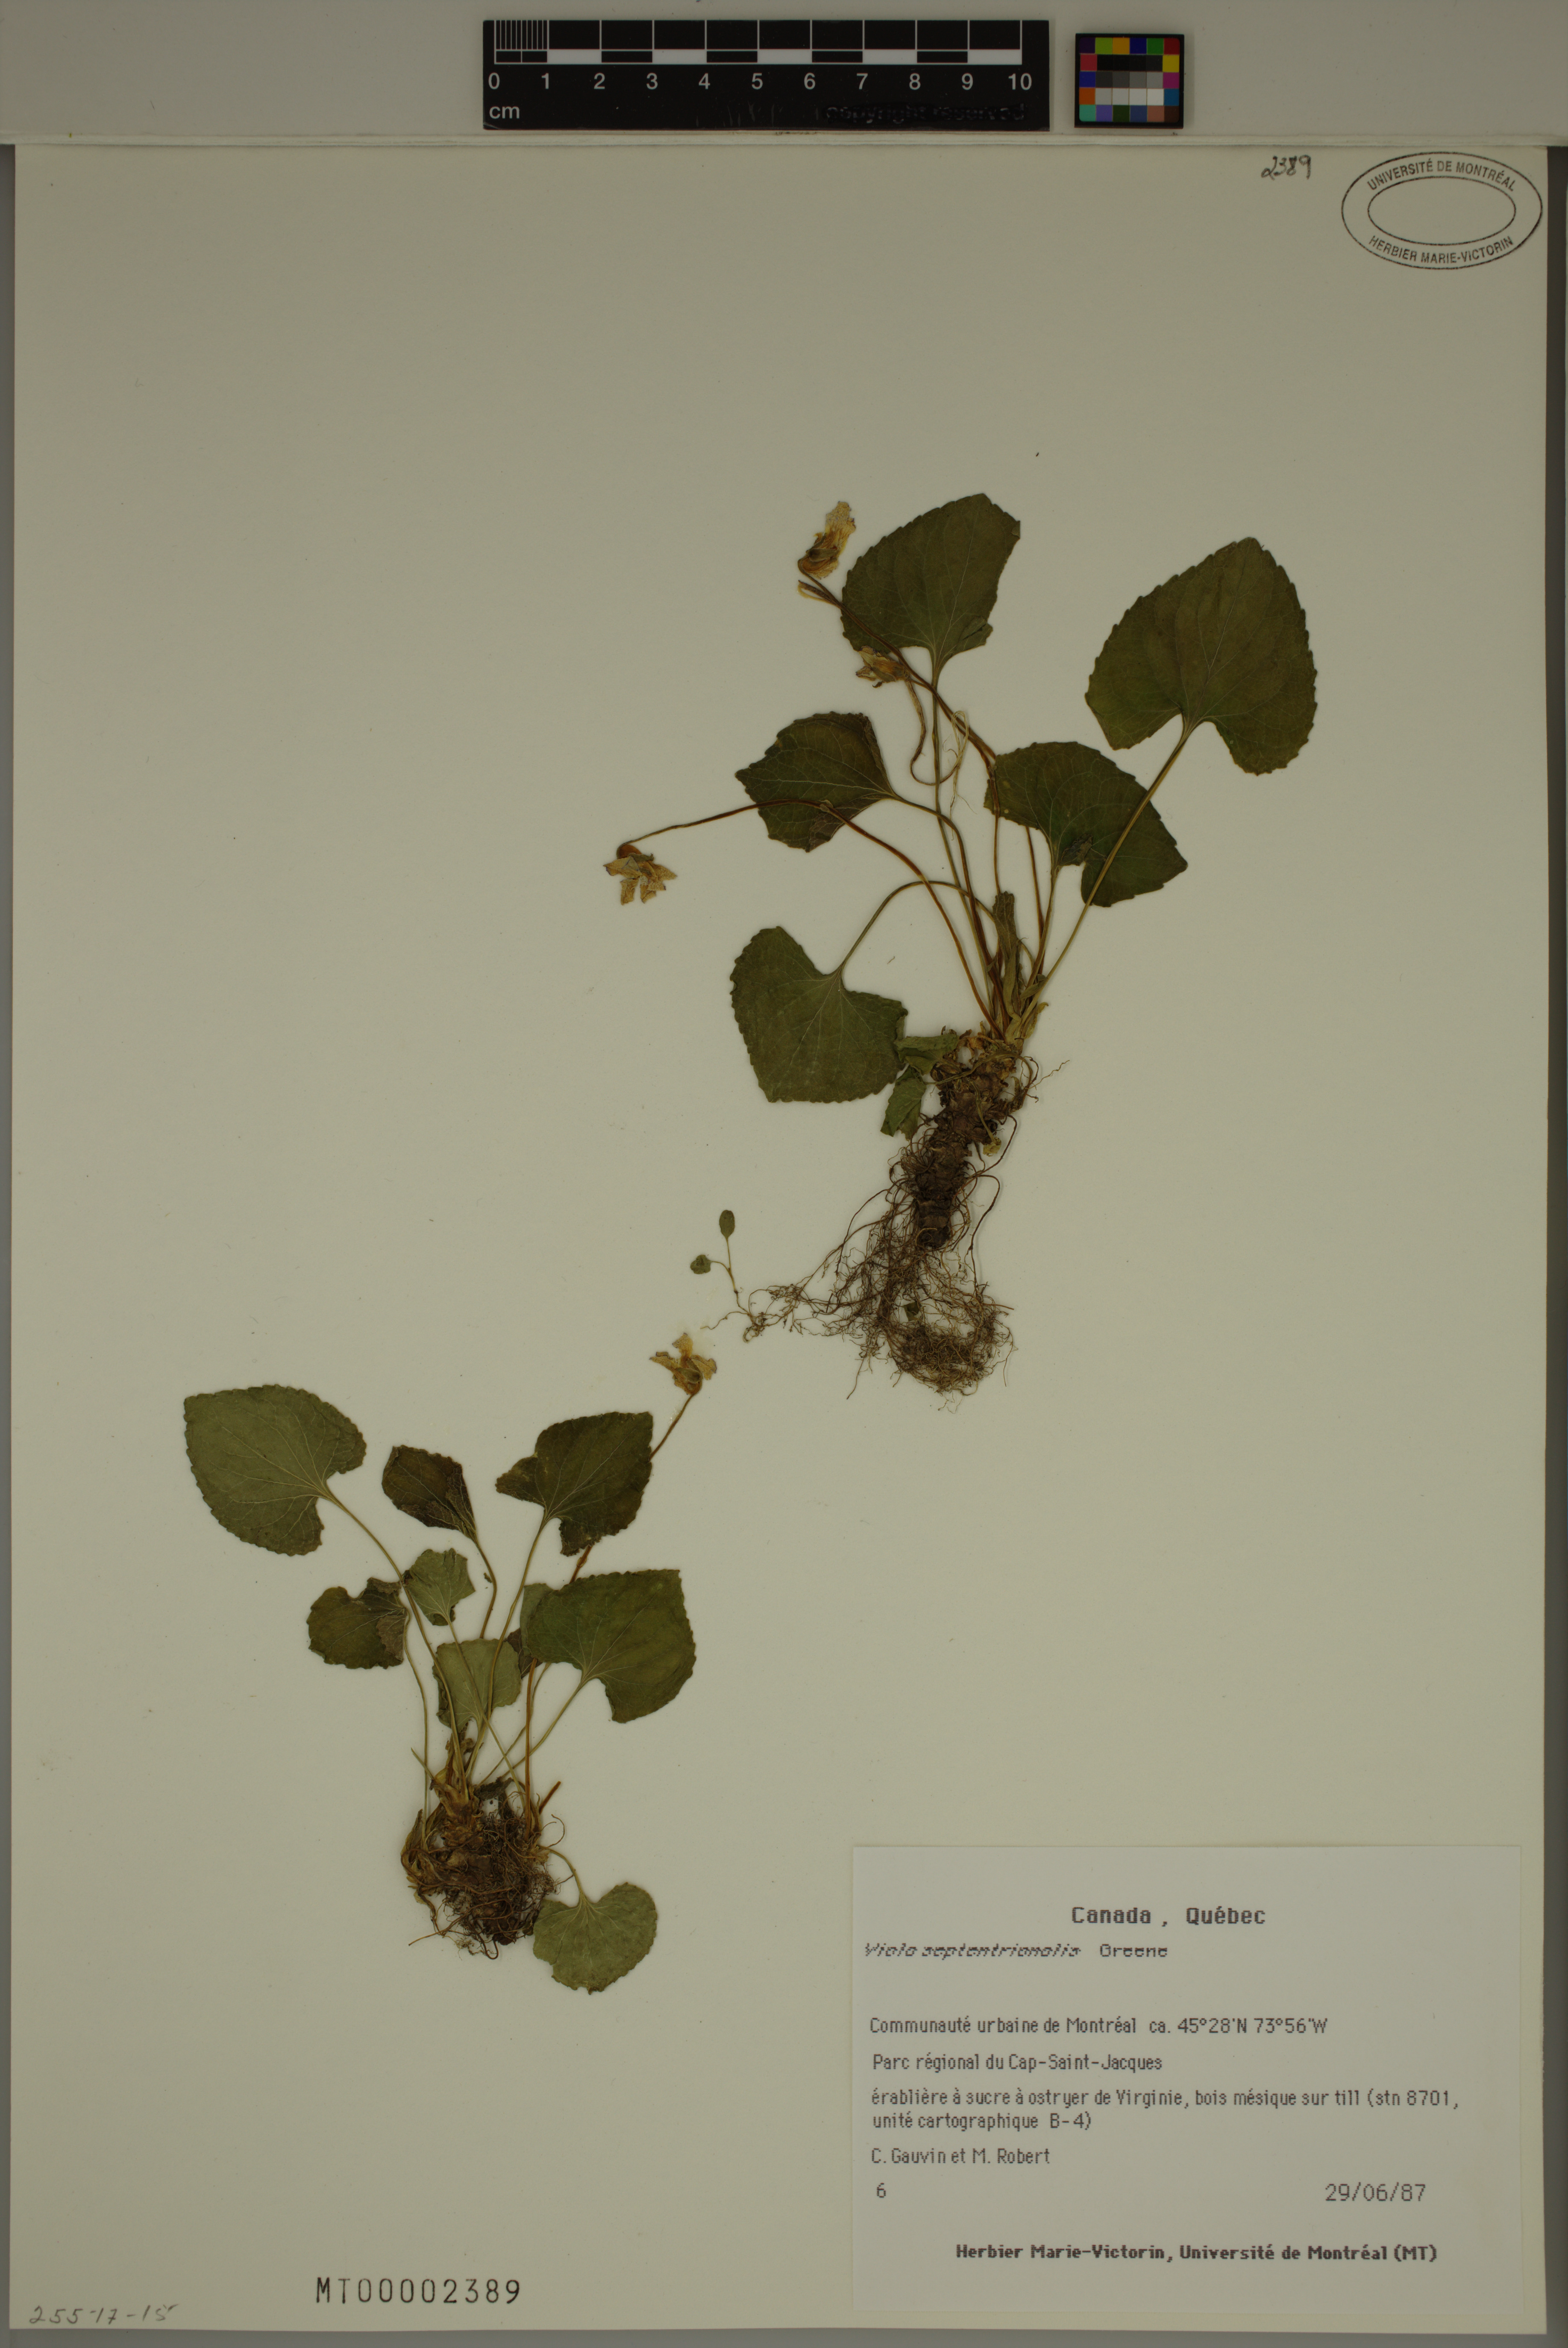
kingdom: Plantae
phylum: Tracheophyta
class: Magnoliopsida
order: Malpighiales
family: Violaceae
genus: Viola
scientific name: Viola sororia
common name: Dooryard violet
